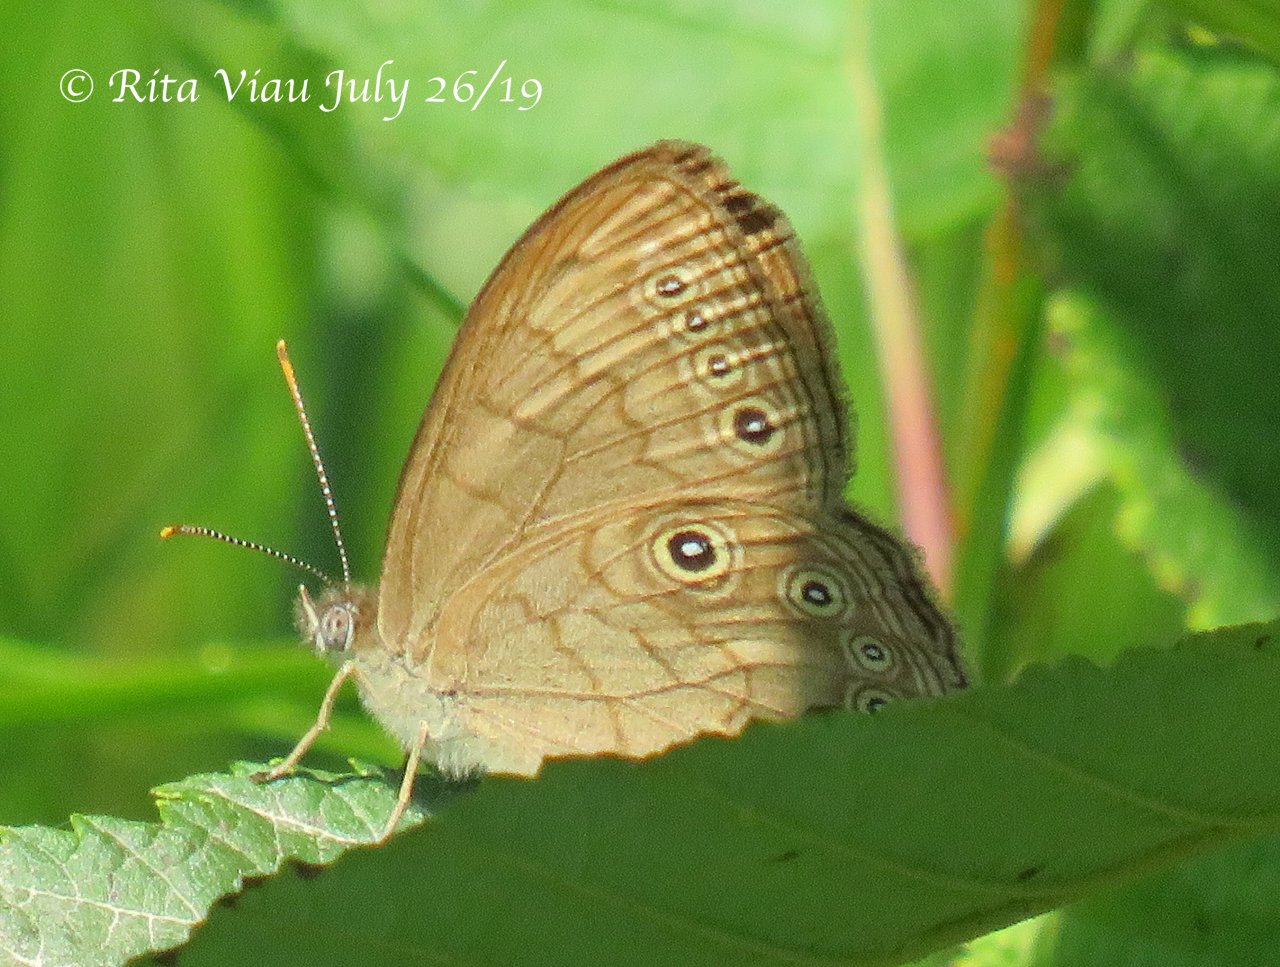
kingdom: Animalia
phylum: Arthropoda
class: Insecta
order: Lepidoptera
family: Nymphalidae
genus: Lethe
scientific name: Lethe eurydice
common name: Eyed Brown
